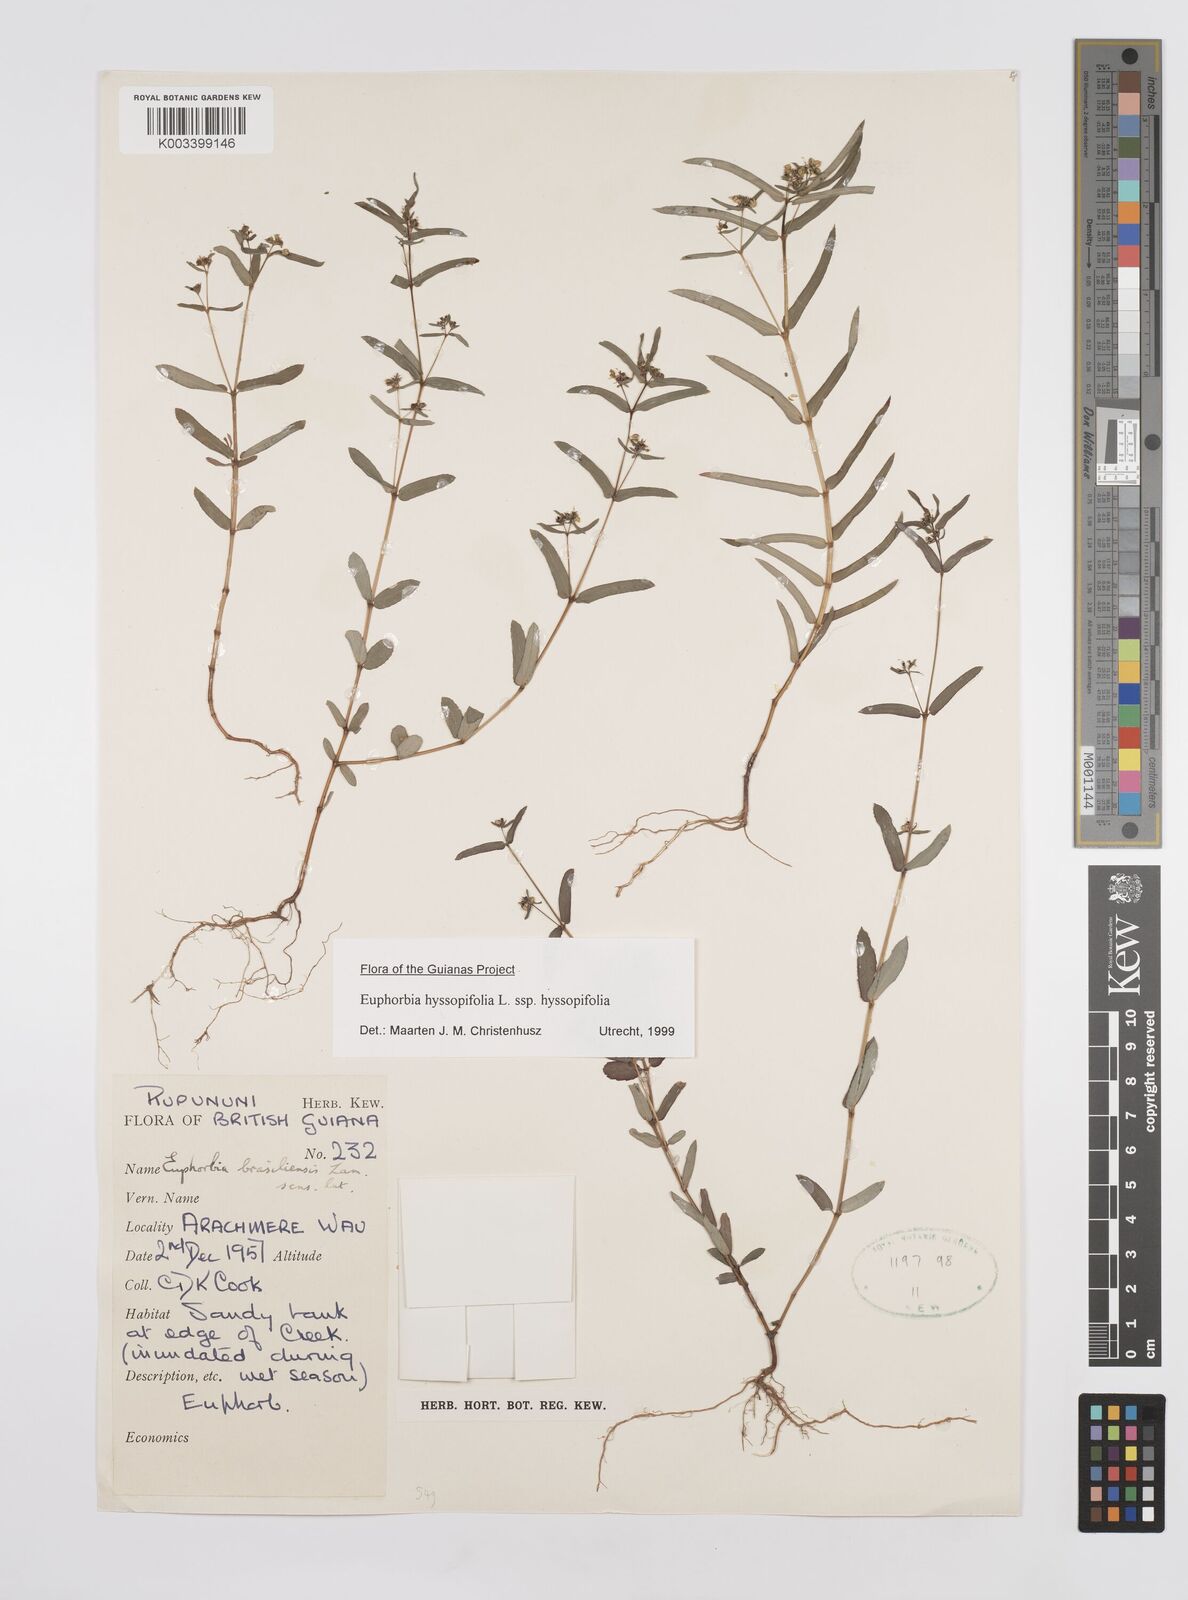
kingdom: Plantae
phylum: Tracheophyta
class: Magnoliopsida
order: Malpighiales
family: Euphorbiaceae
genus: Euphorbia
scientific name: Euphorbia hyssopifolia
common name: Hyssopleaf sandmat
